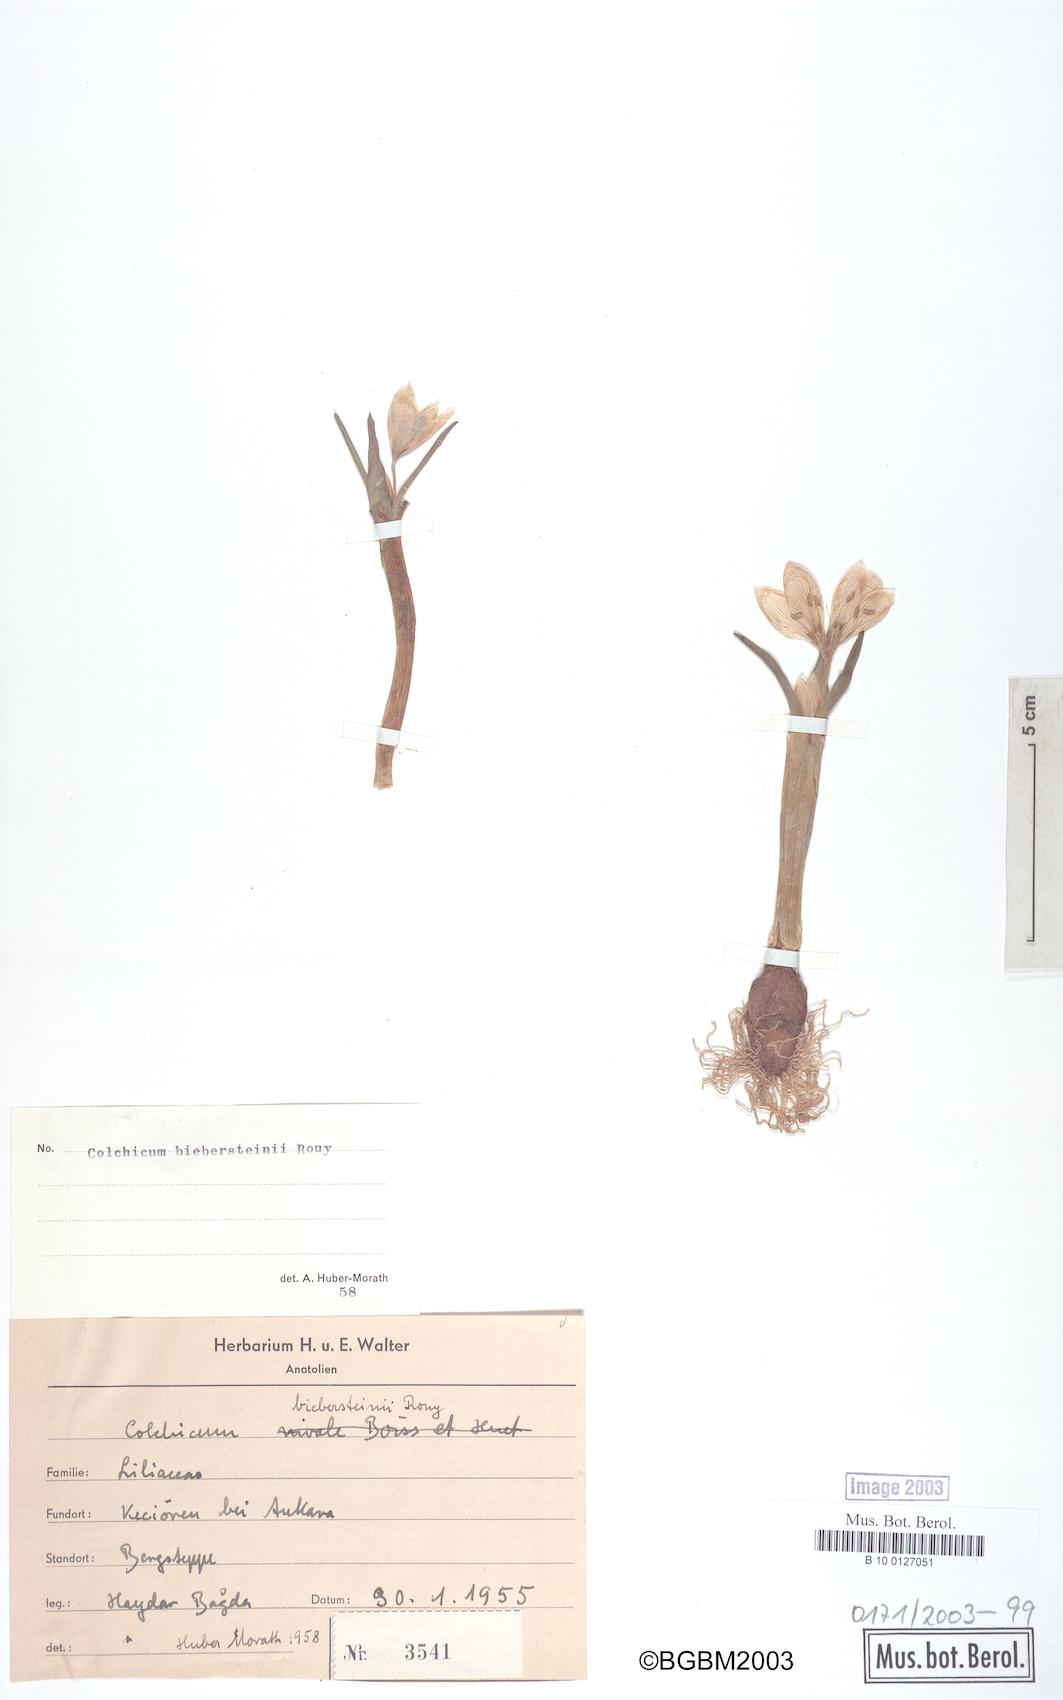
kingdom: Plantae
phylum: Tracheophyta
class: Liliopsida
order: Liliales
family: Colchicaceae
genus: Colchicum
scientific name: Colchicum triphyllum
